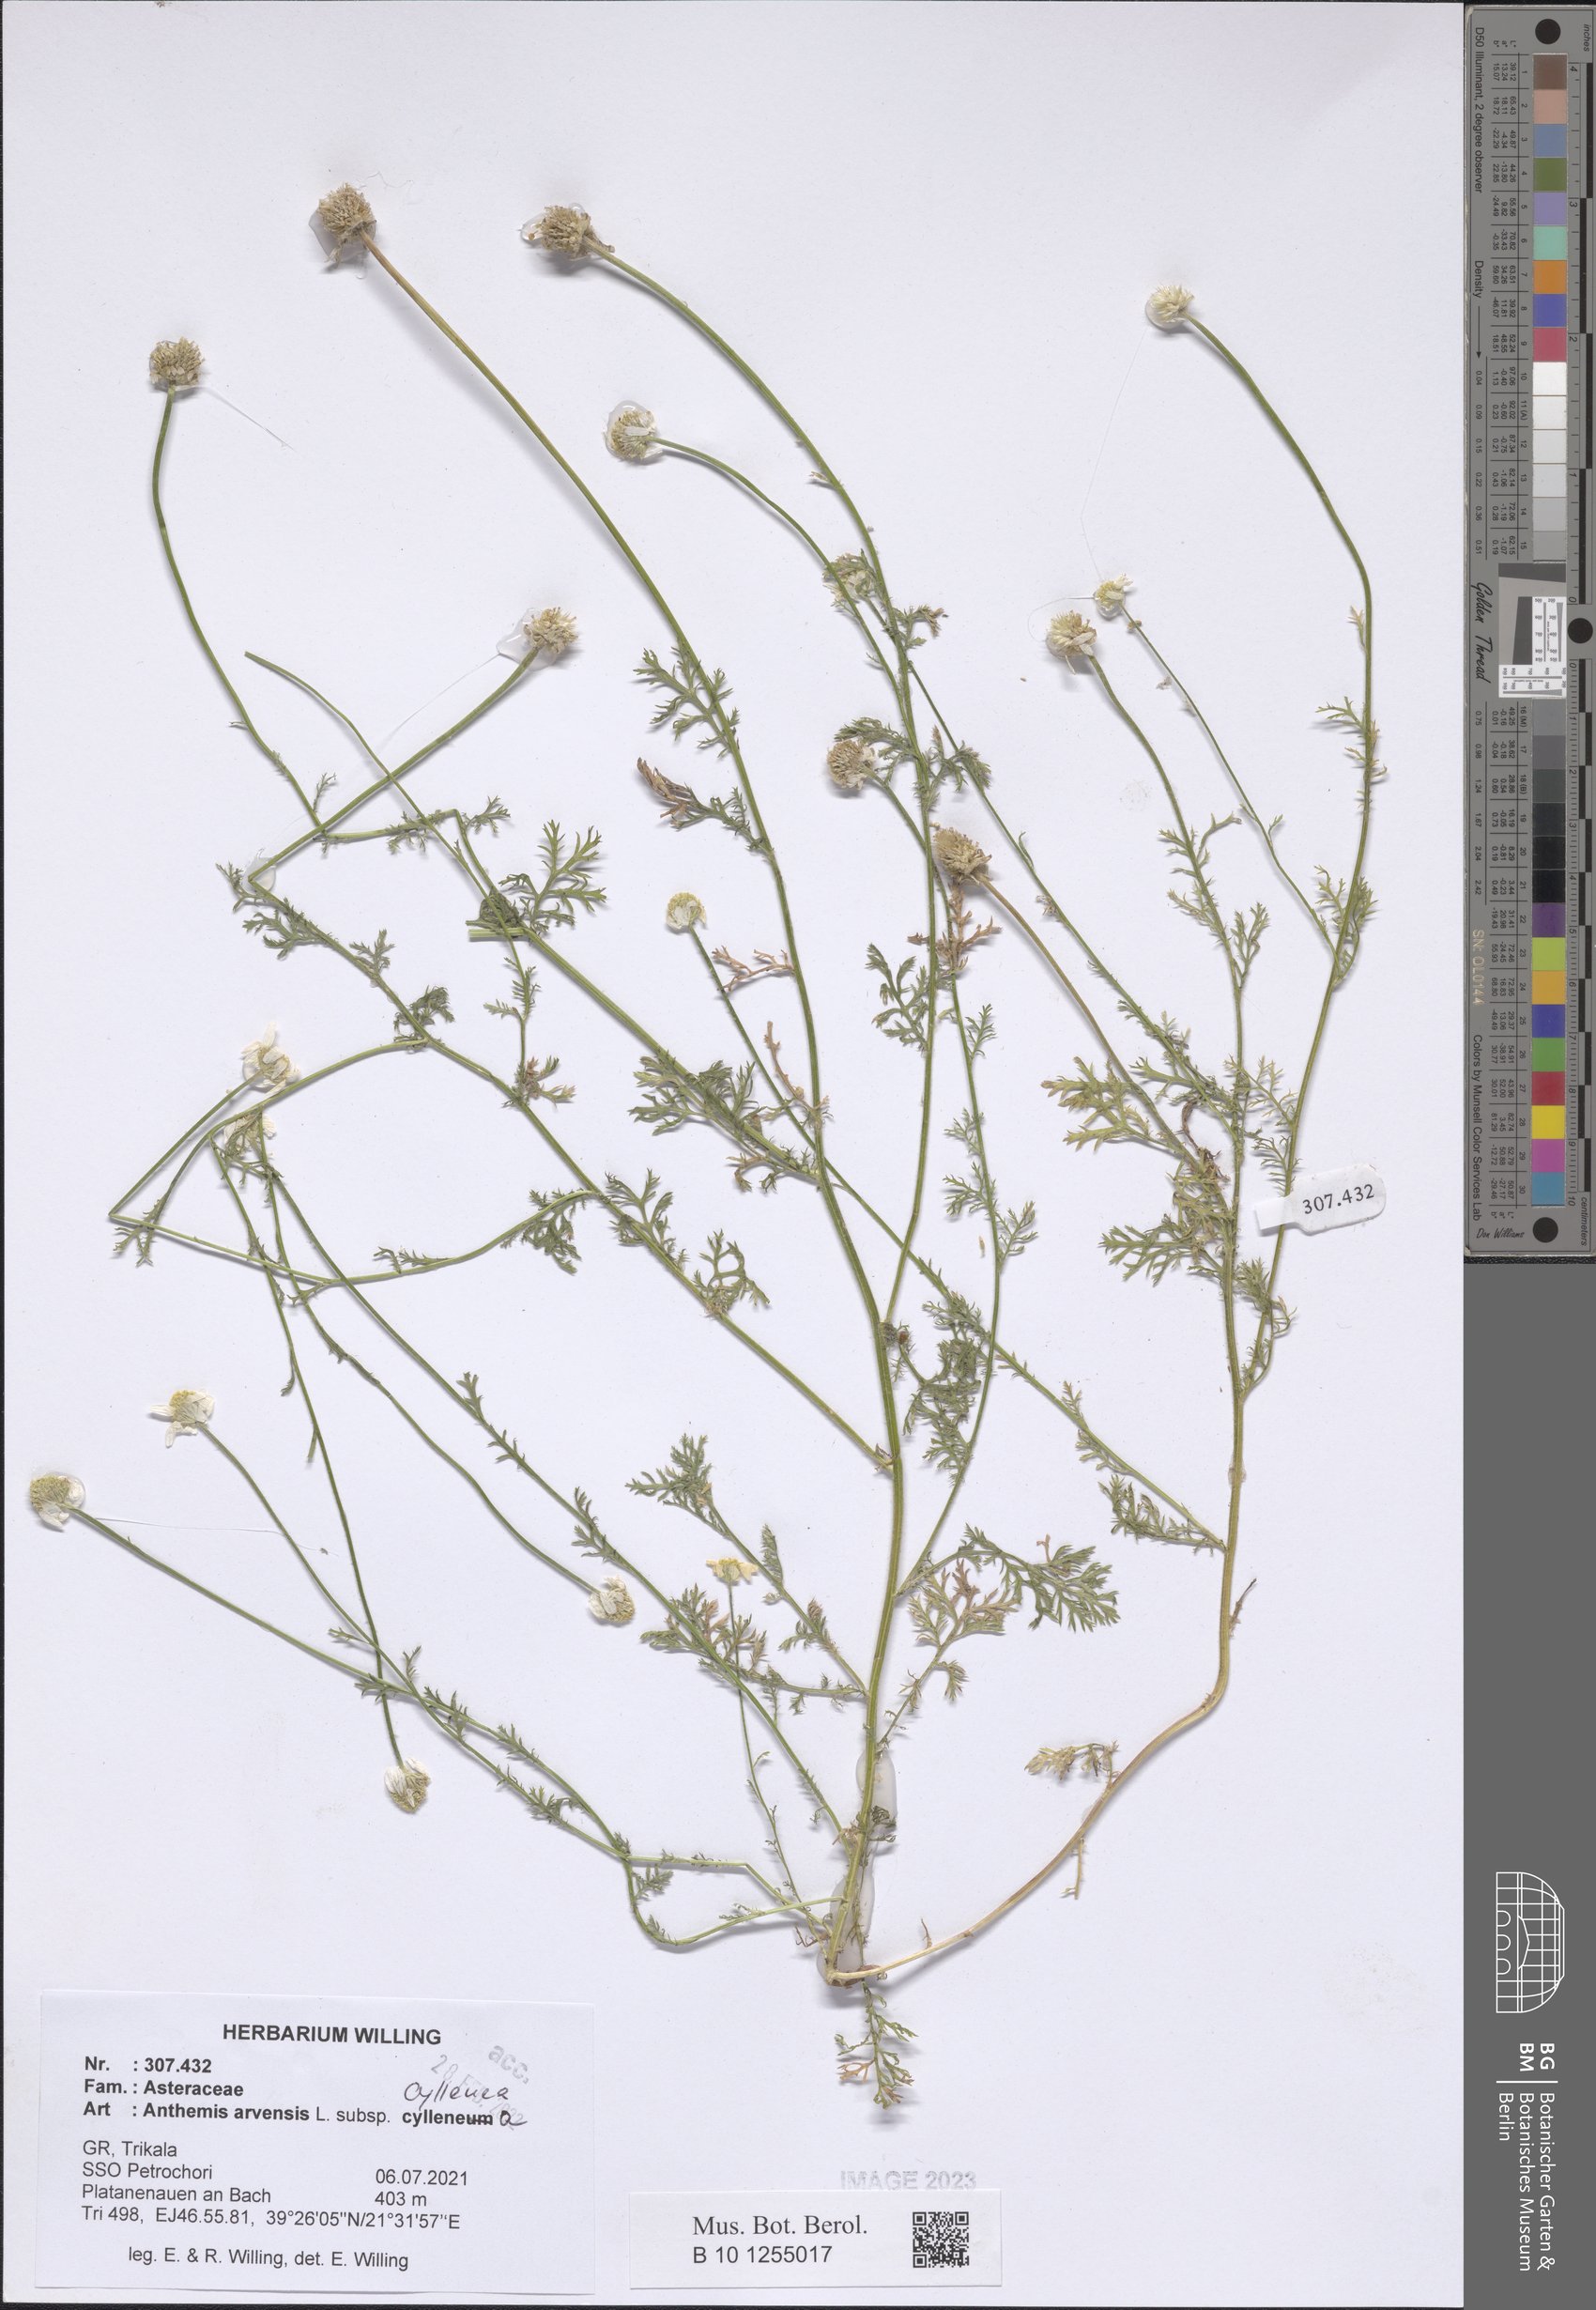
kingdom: Plantae
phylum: Tracheophyta
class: Magnoliopsida
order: Asterales
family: Asteraceae
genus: Anthemis
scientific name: Anthemis arvensis
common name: Corn chamomile
